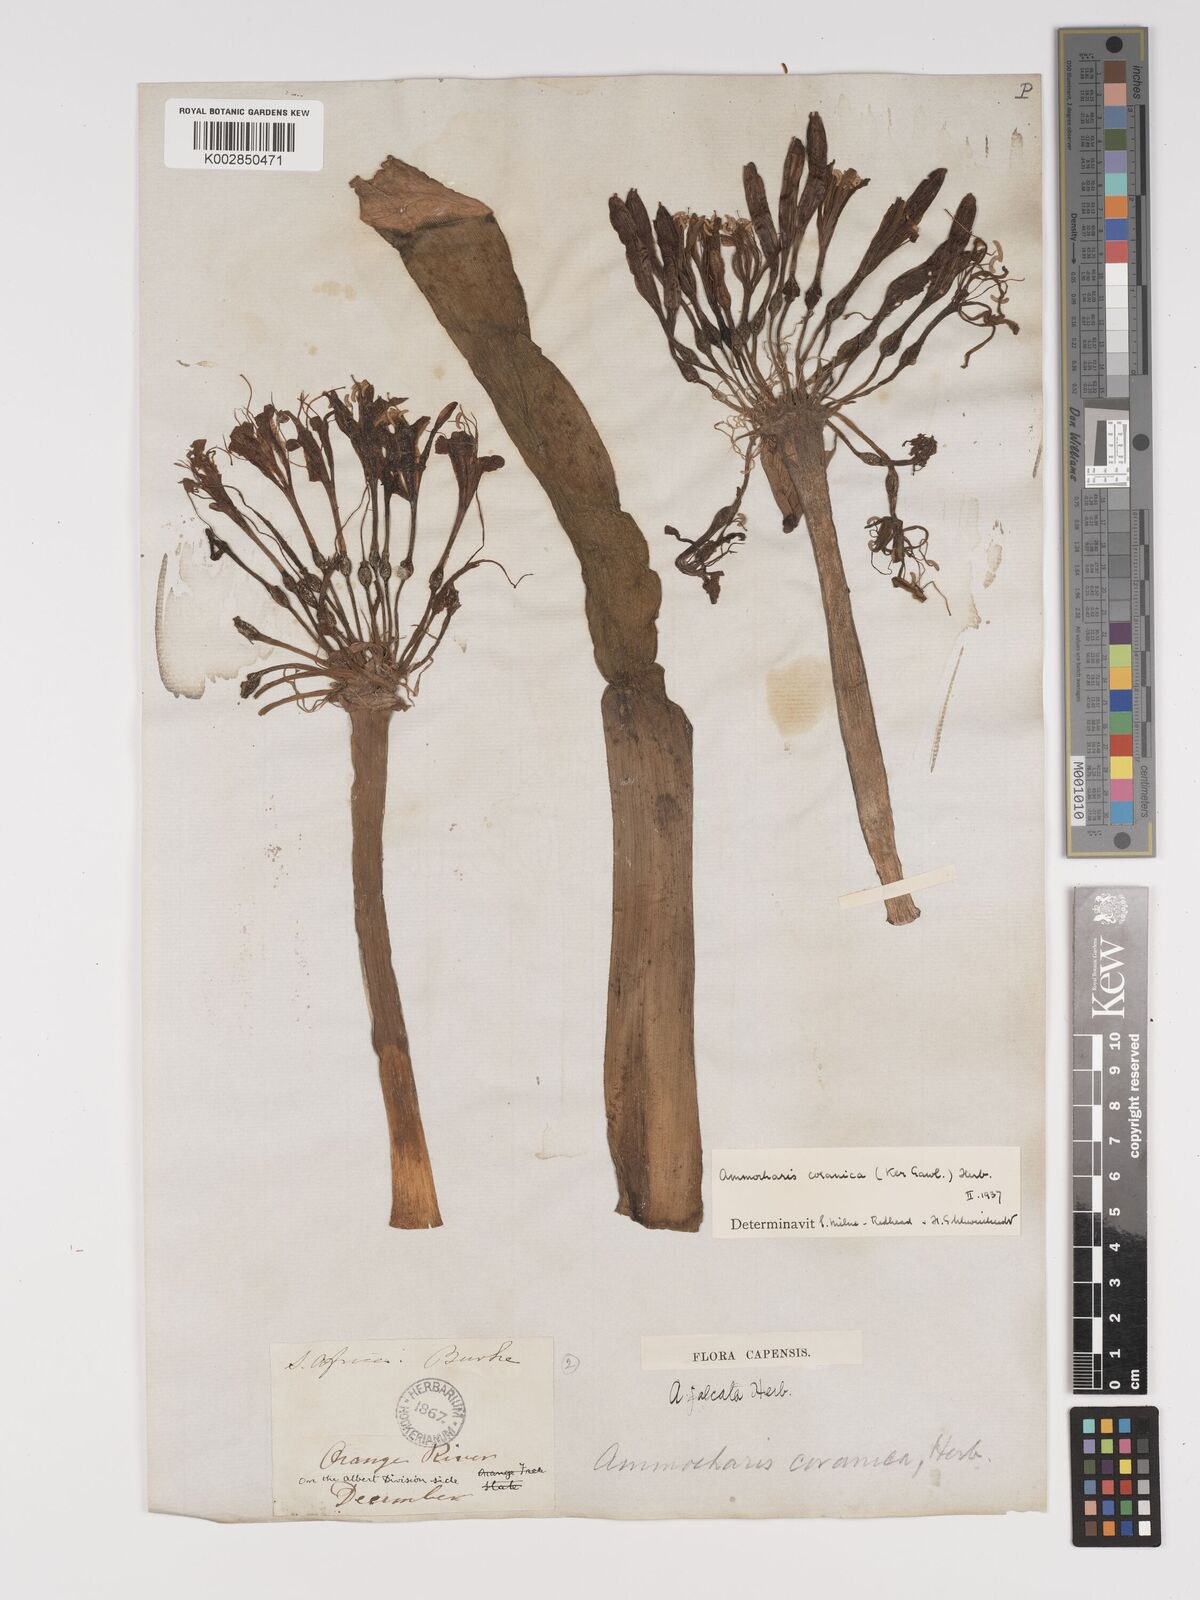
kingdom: Plantae
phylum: Tracheophyta
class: Liliopsida
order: Asparagales
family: Amaryllidaceae
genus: Ammocharis
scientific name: Ammocharis coranica
